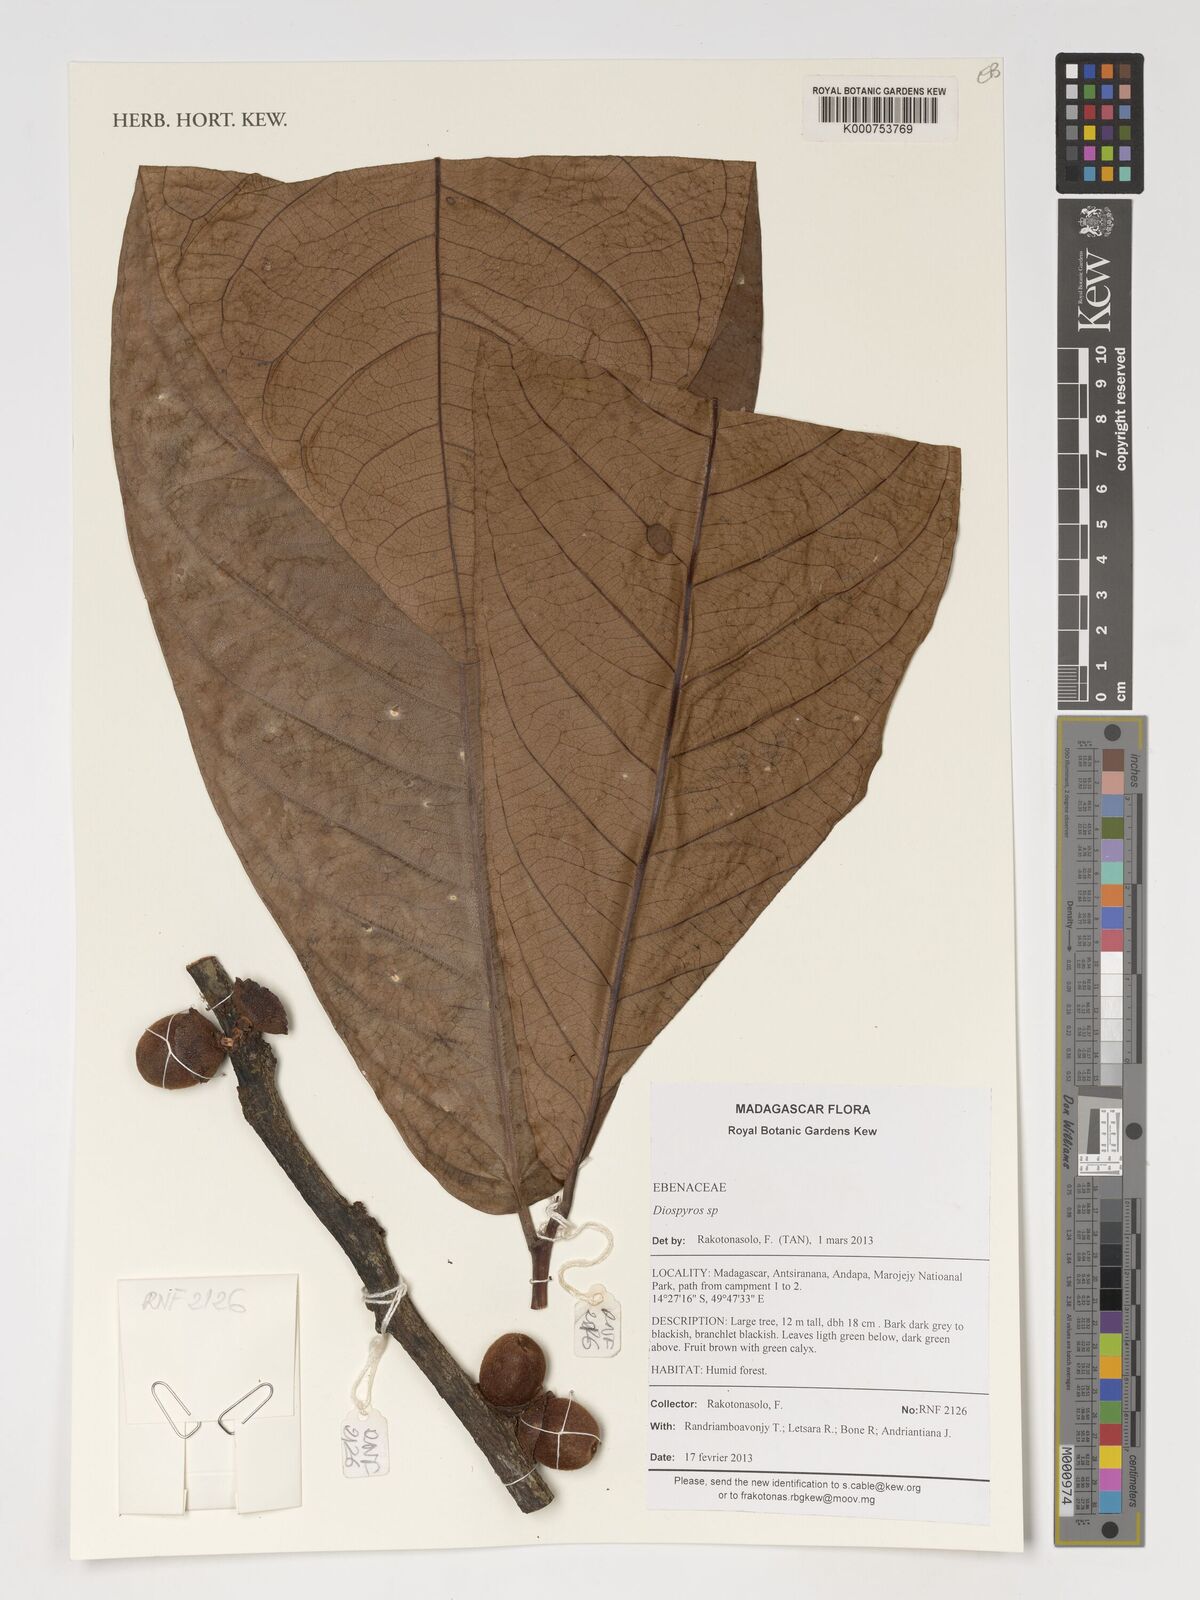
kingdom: Plantae
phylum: Tracheophyta
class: Magnoliopsida
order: Ericales
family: Ebenaceae
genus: Diospyros
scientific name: Diospyros
